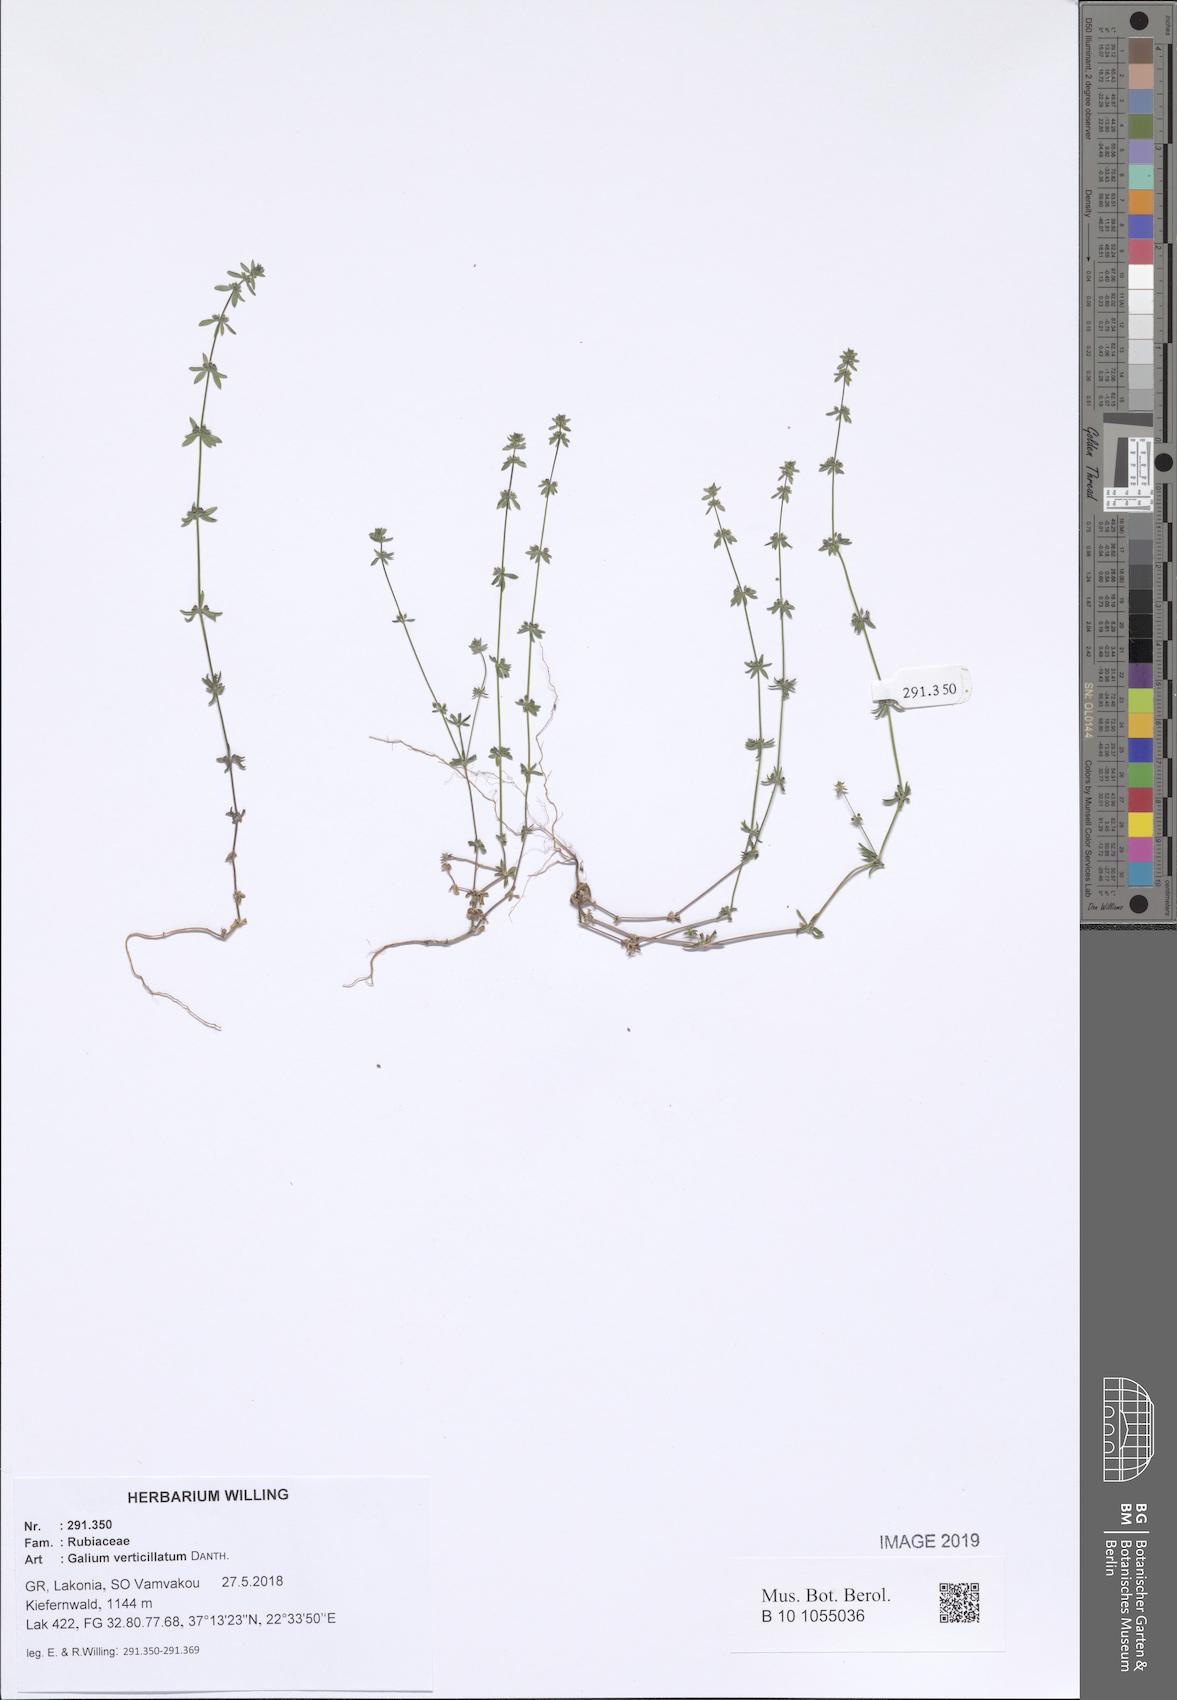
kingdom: Plantae
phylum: Tracheophyta
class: Magnoliopsida
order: Gentianales
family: Rubiaceae
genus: Galium
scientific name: Galium verticillatum
